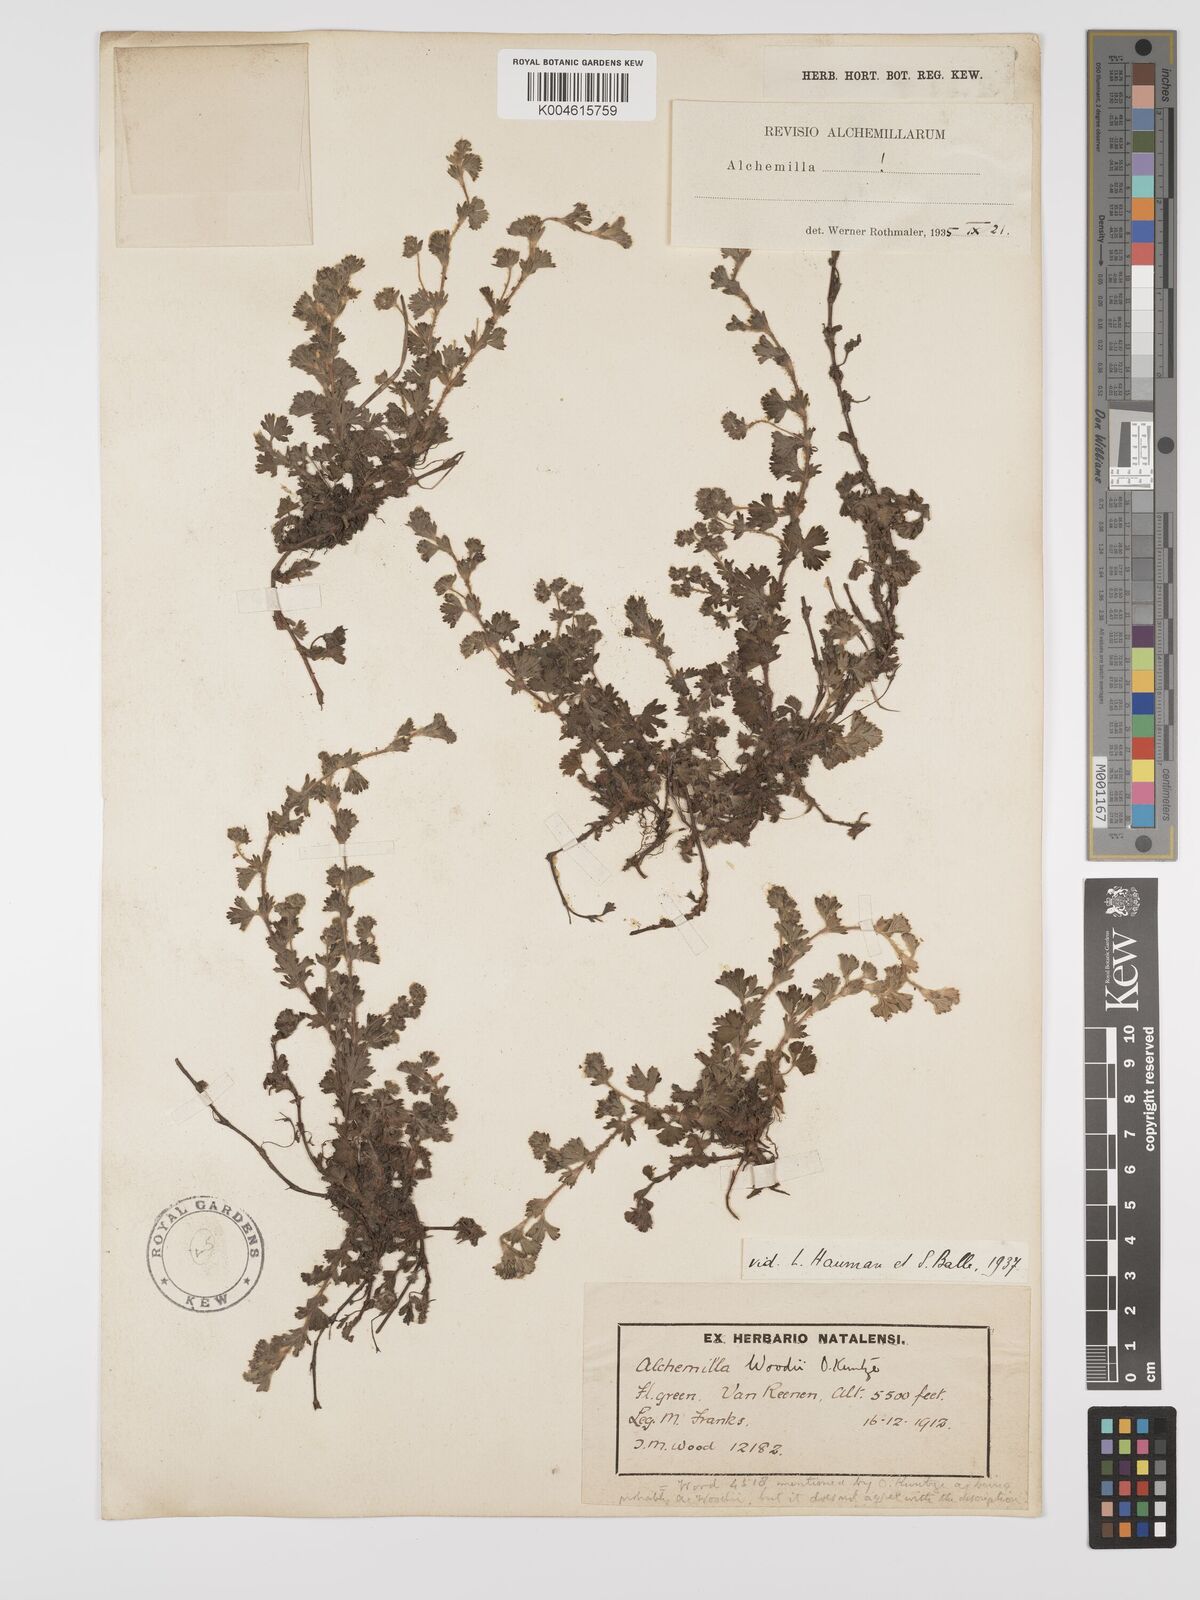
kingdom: Plantae
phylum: Tracheophyta
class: Magnoliopsida
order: Rosales
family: Rosaceae
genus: Alchemilla
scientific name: Alchemilla woodii
